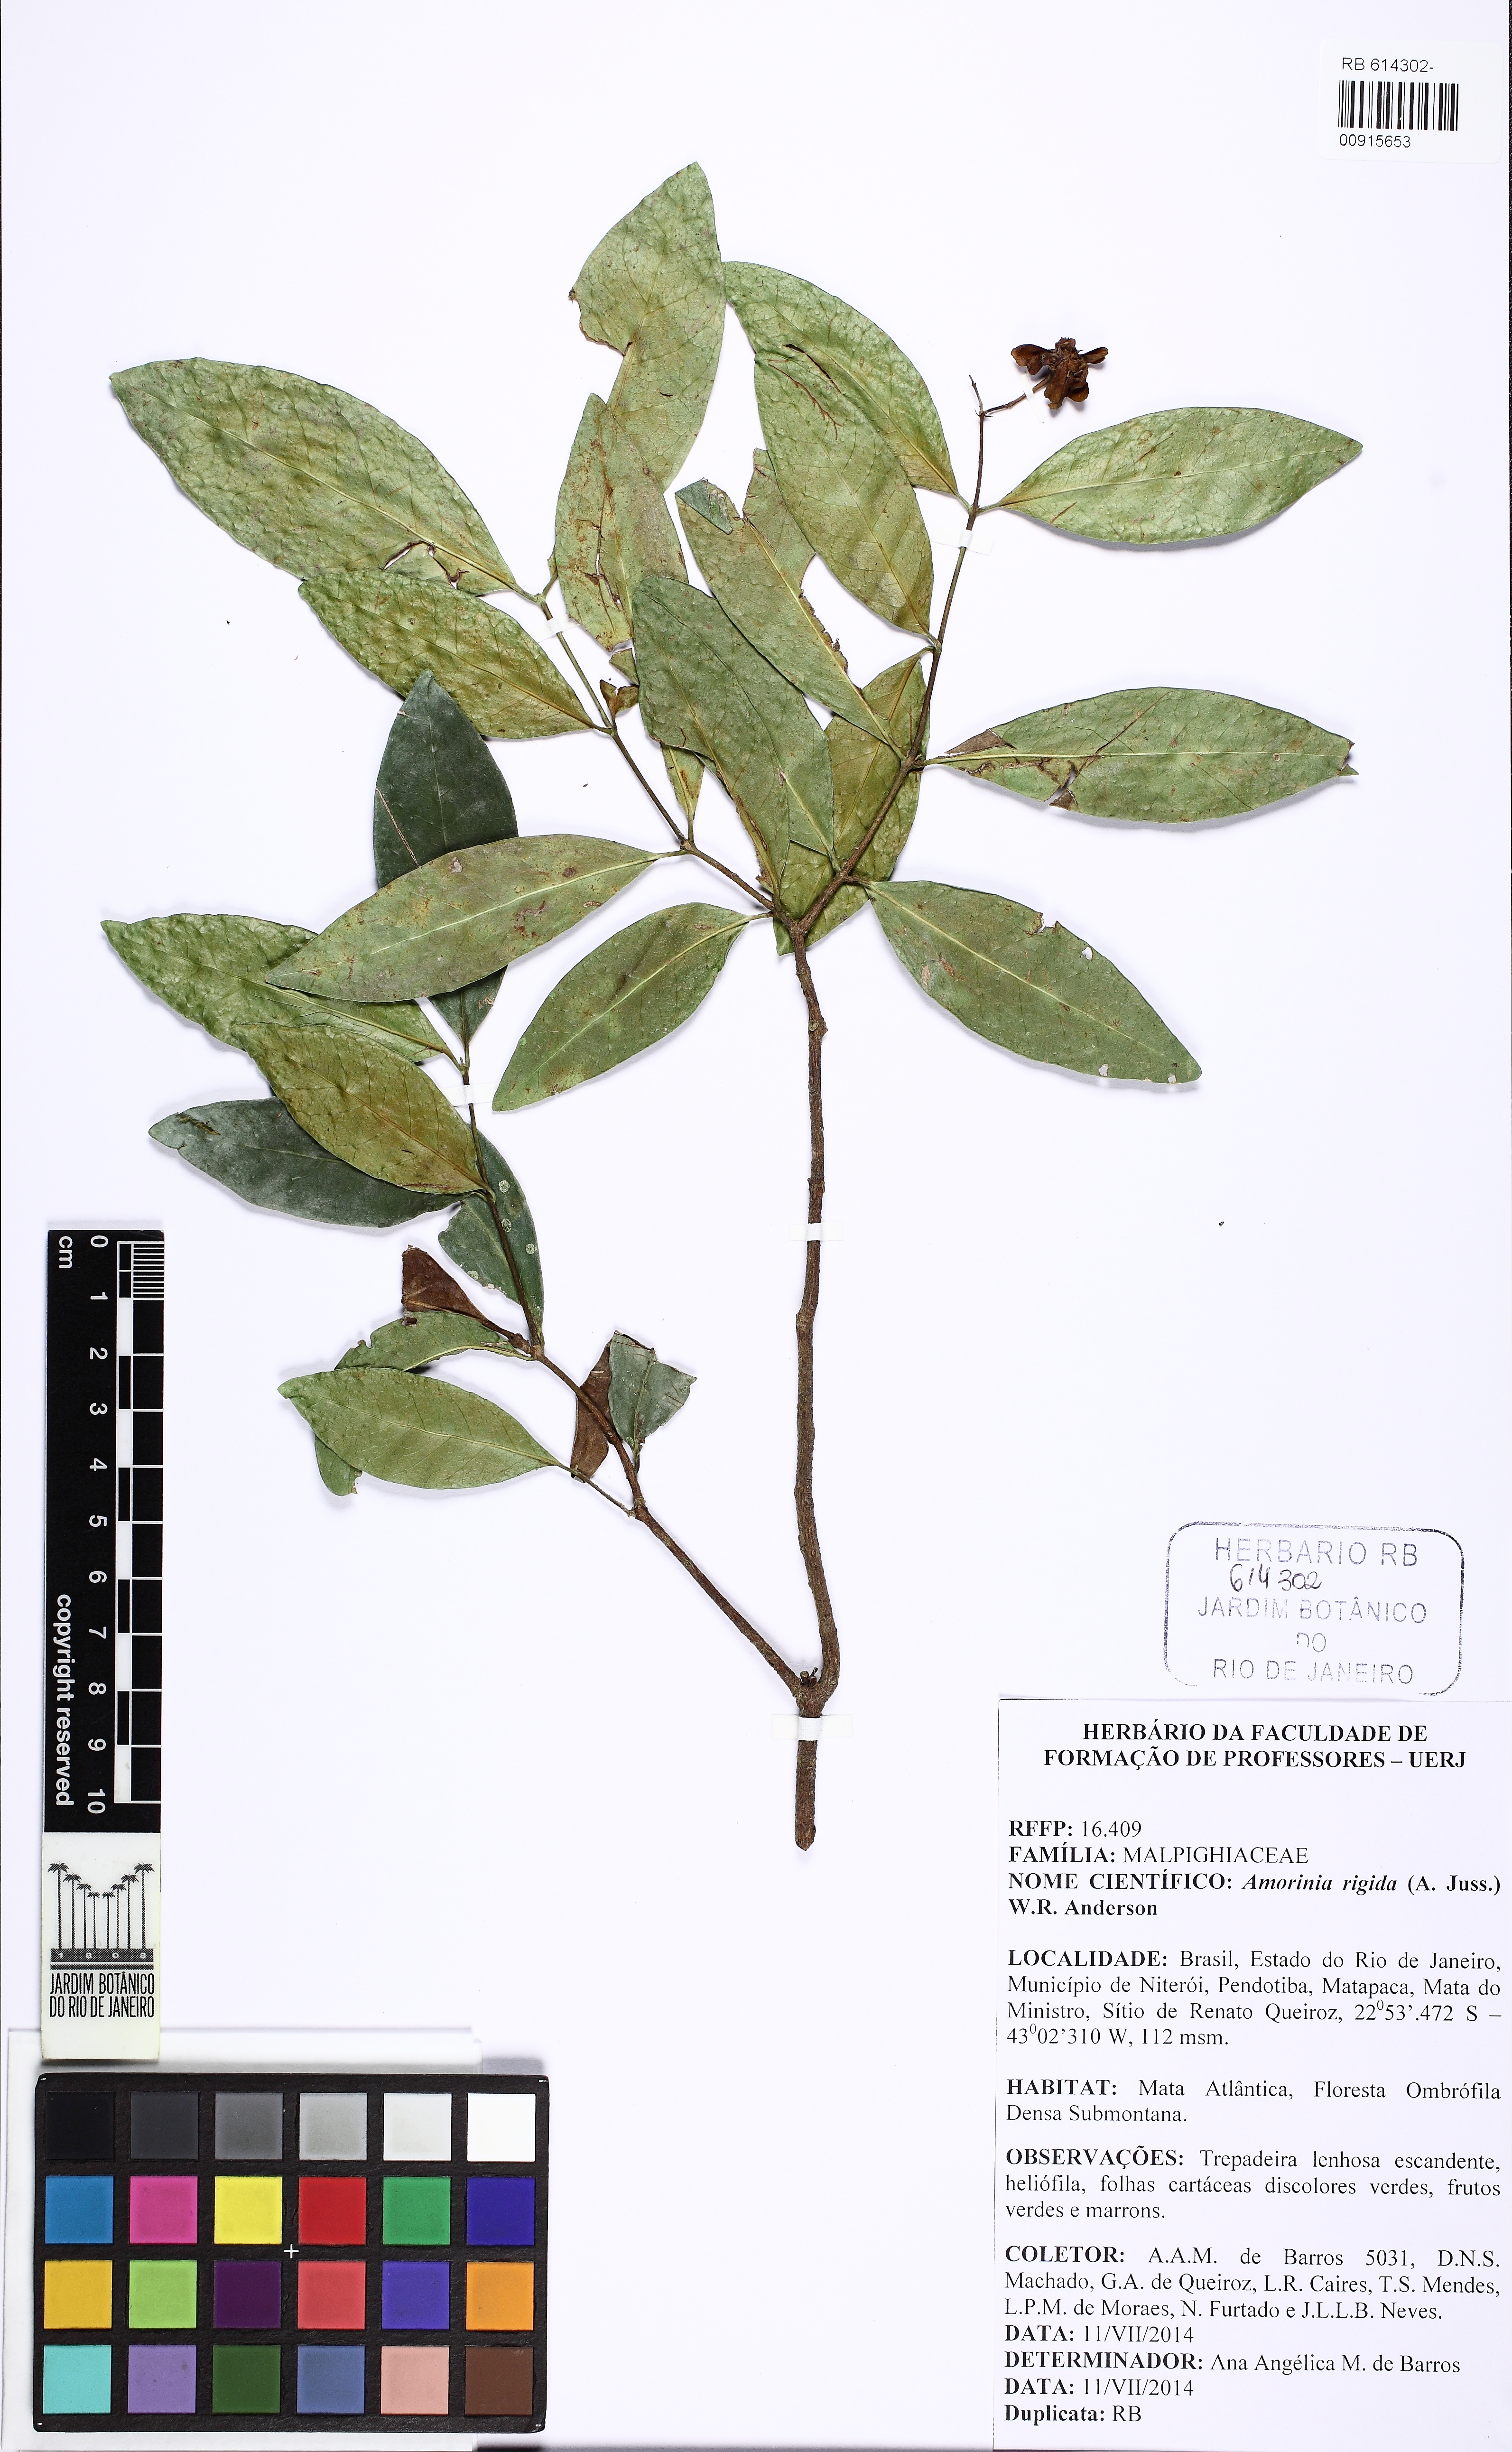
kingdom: Plantae
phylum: Tracheophyta
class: Magnoliopsida
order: Malpighiales
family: Malpighiaceae
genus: Niedenzuella
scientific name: Niedenzuella acutifolia
